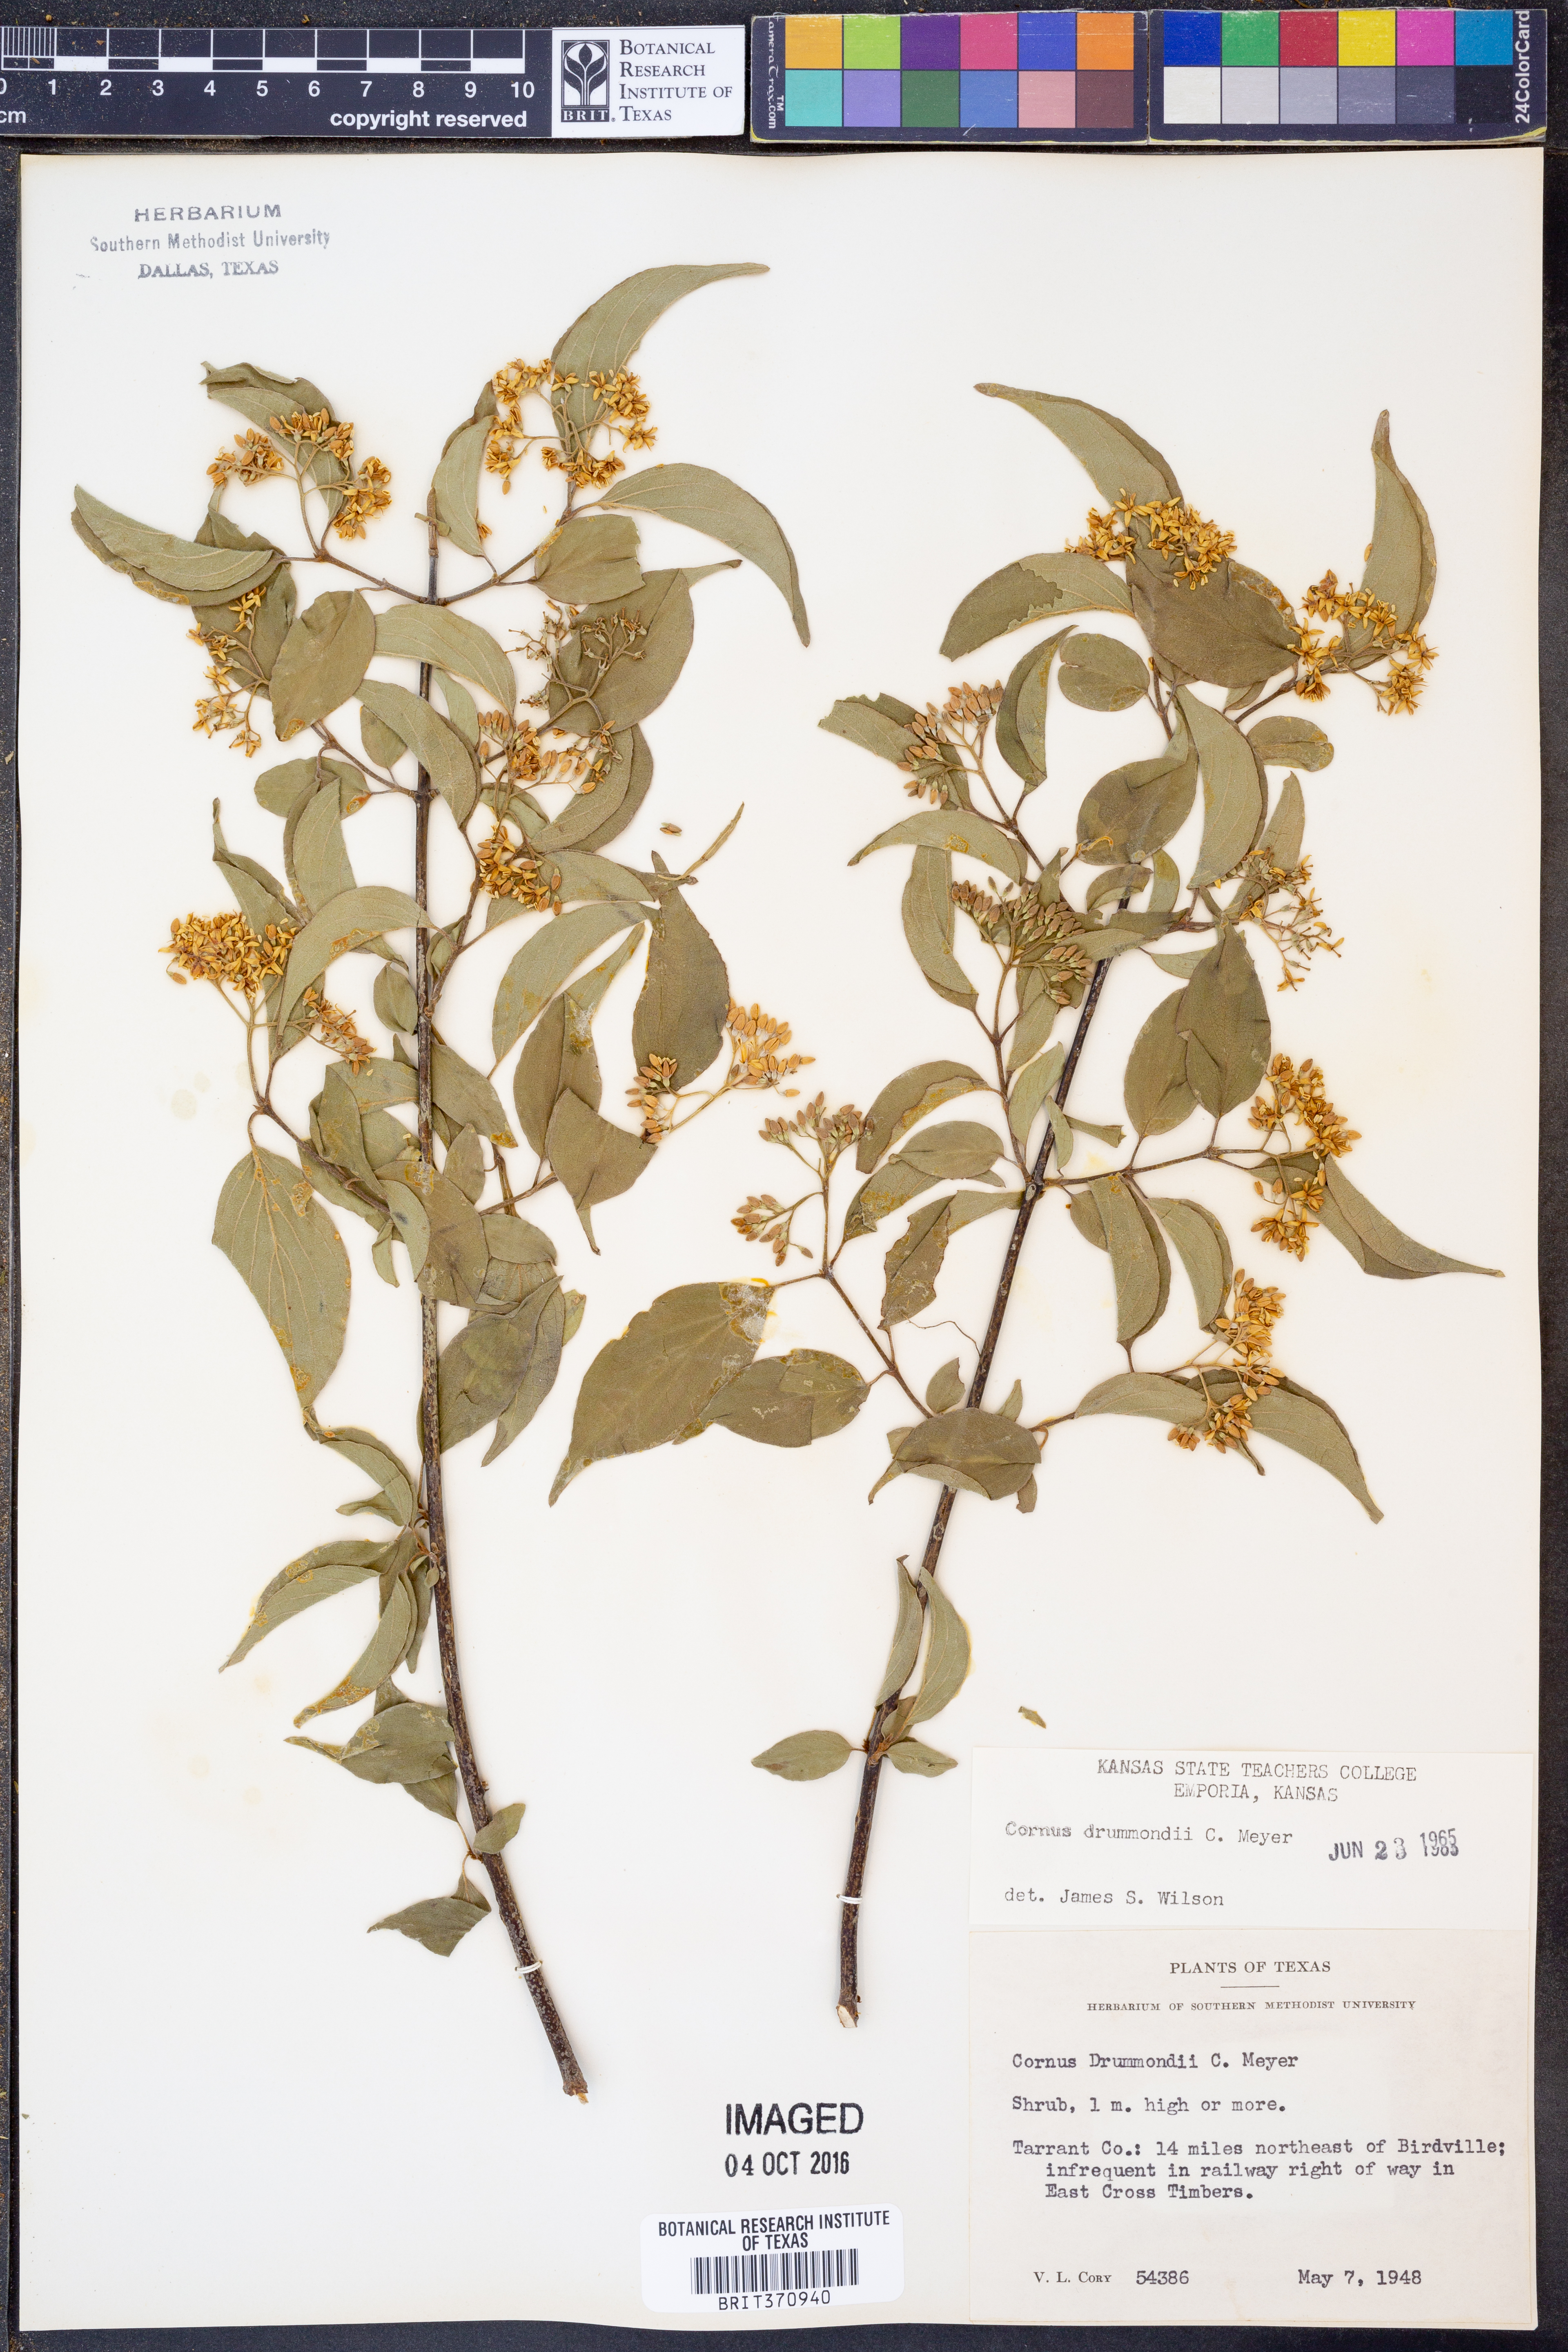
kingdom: Plantae
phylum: Tracheophyta
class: Magnoliopsida
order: Cornales
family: Cornaceae
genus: Cornus
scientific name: Cornus drummondii
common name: Rough-leaf dogwood
